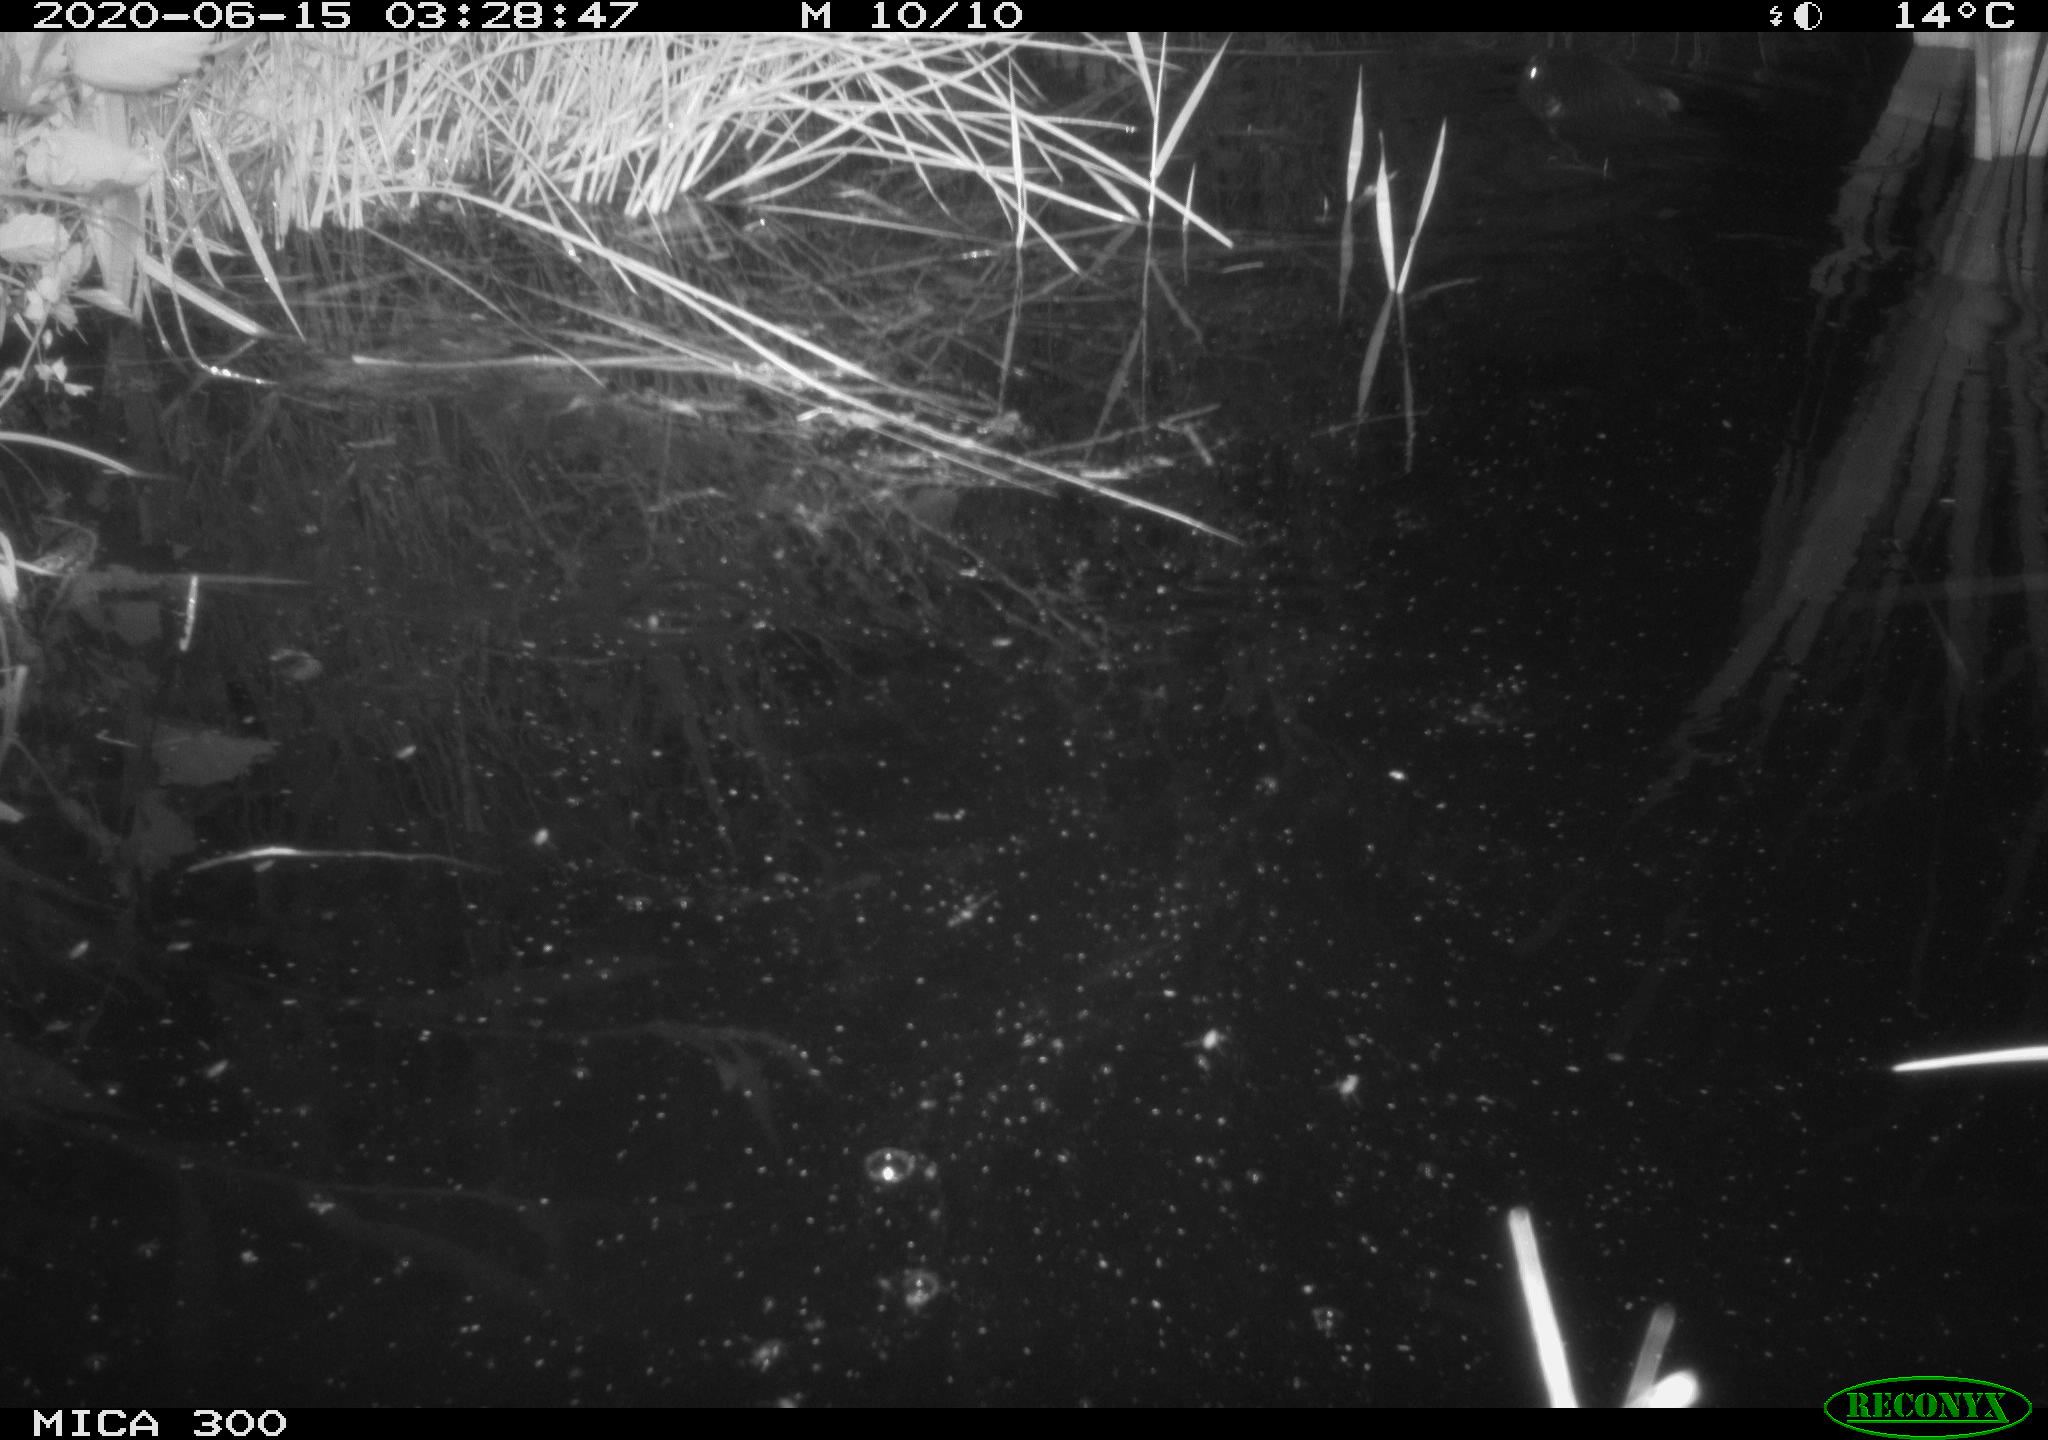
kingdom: Animalia
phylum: Chordata
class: Mammalia
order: Rodentia
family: Castoridae
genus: Castor
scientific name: Castor fiber
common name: Eurasian beaver
